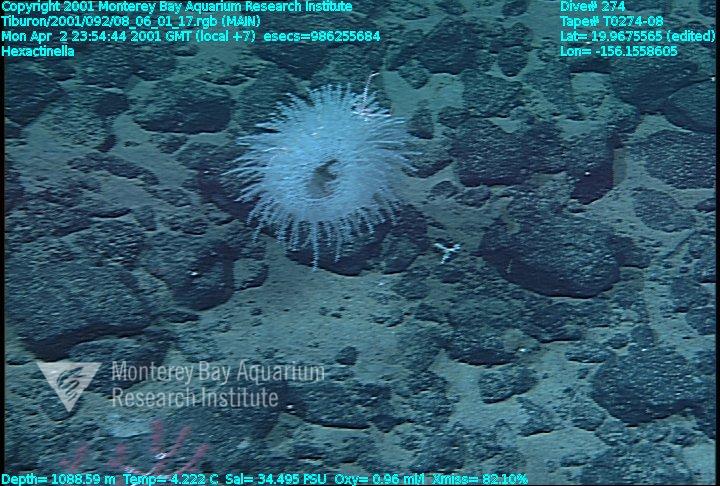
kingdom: Animalia
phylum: Porifera
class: Hexactinellida
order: Sceptrulophora
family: Tretodictyidae
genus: Hexactinella
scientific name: Hexactinella
